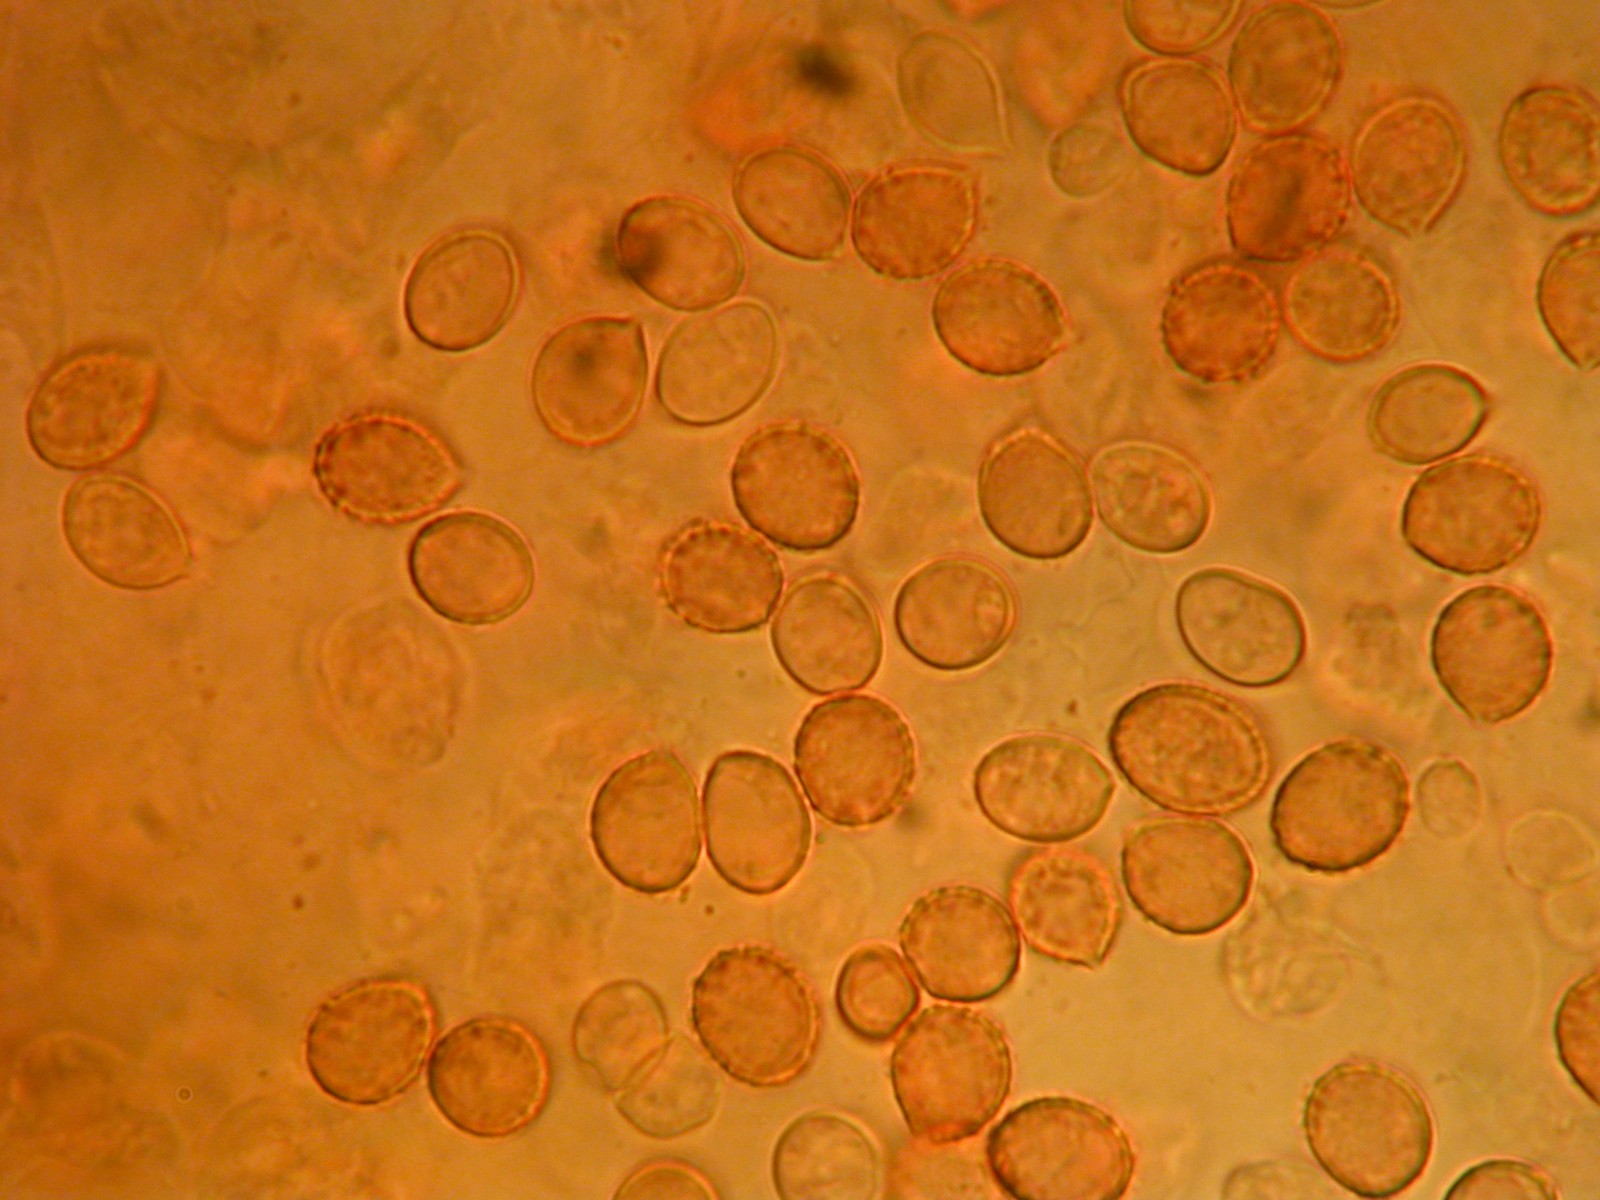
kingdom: Fungi
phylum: Basidiomycota
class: Agaricomycetes
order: Agaricales
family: Cortinariaceae
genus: Cortinarius
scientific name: Cortinarius caninus
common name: gran-slørhat
